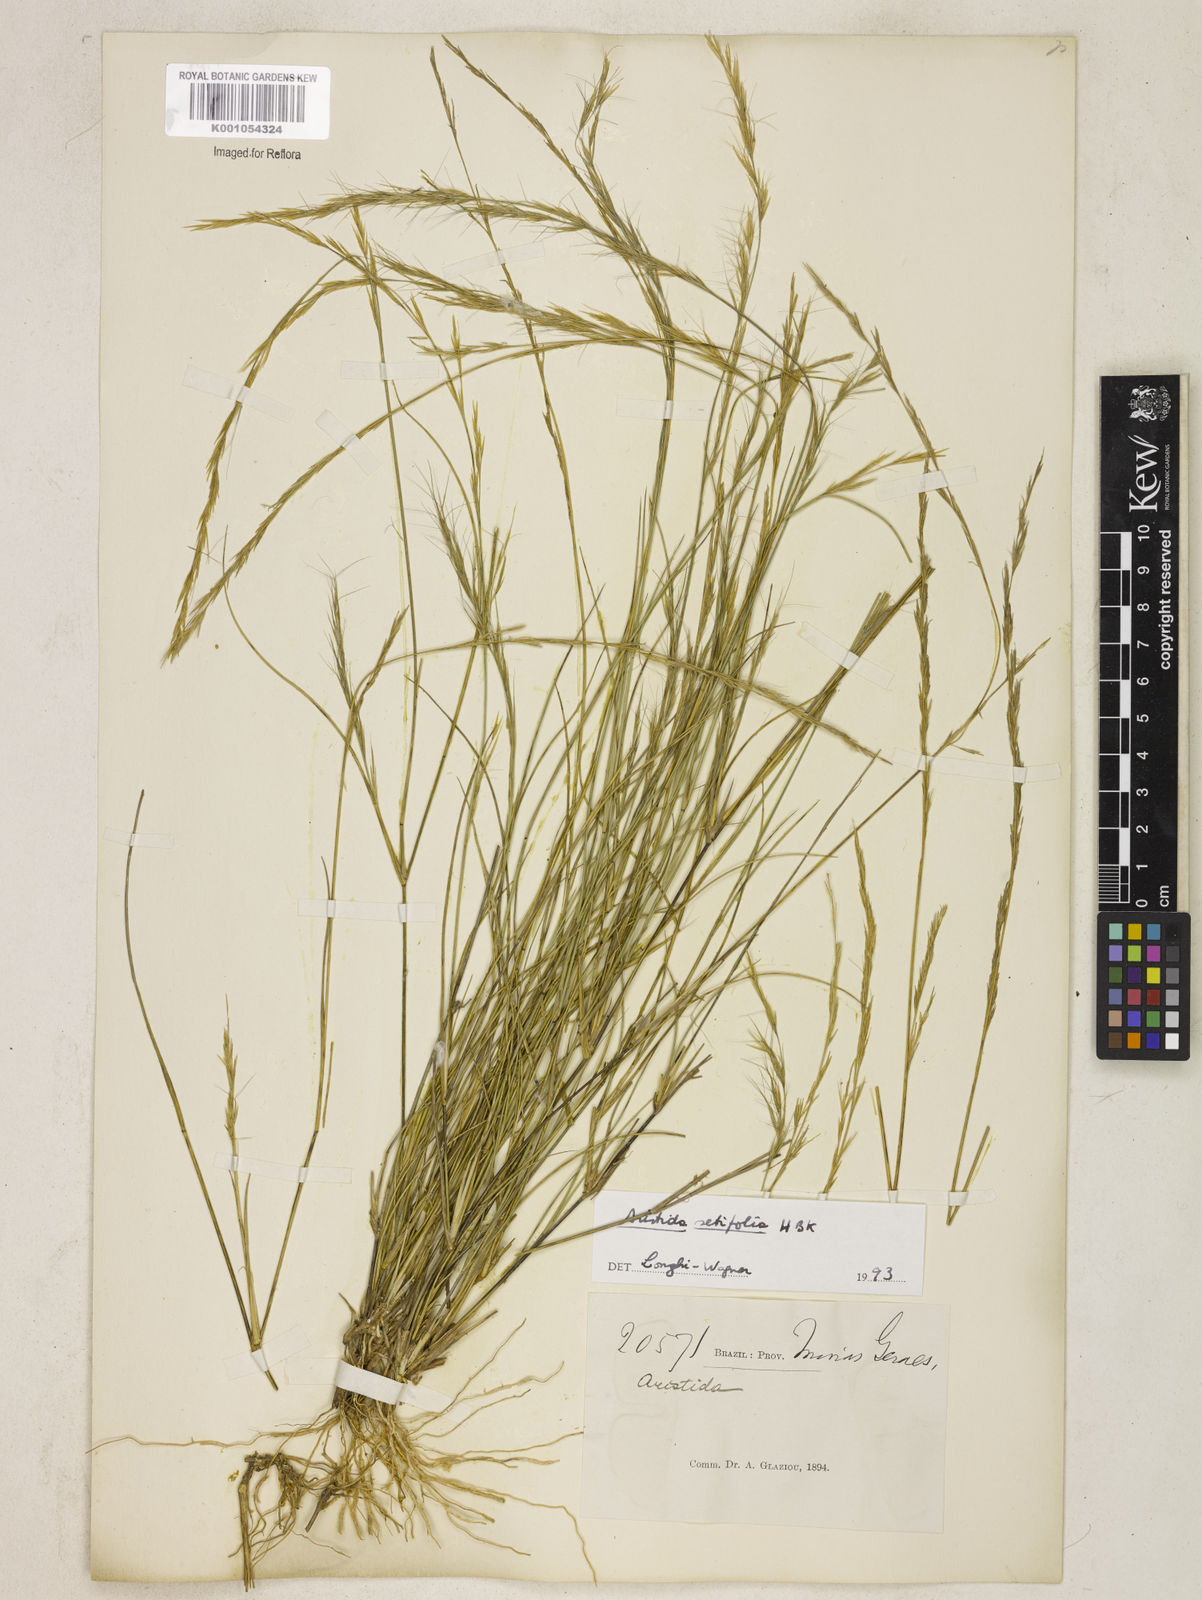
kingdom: Plantae
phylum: Tracheophyta
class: Liliopsida
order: Poales
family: Poaceae
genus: Aristida
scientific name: Aristida setifolia
